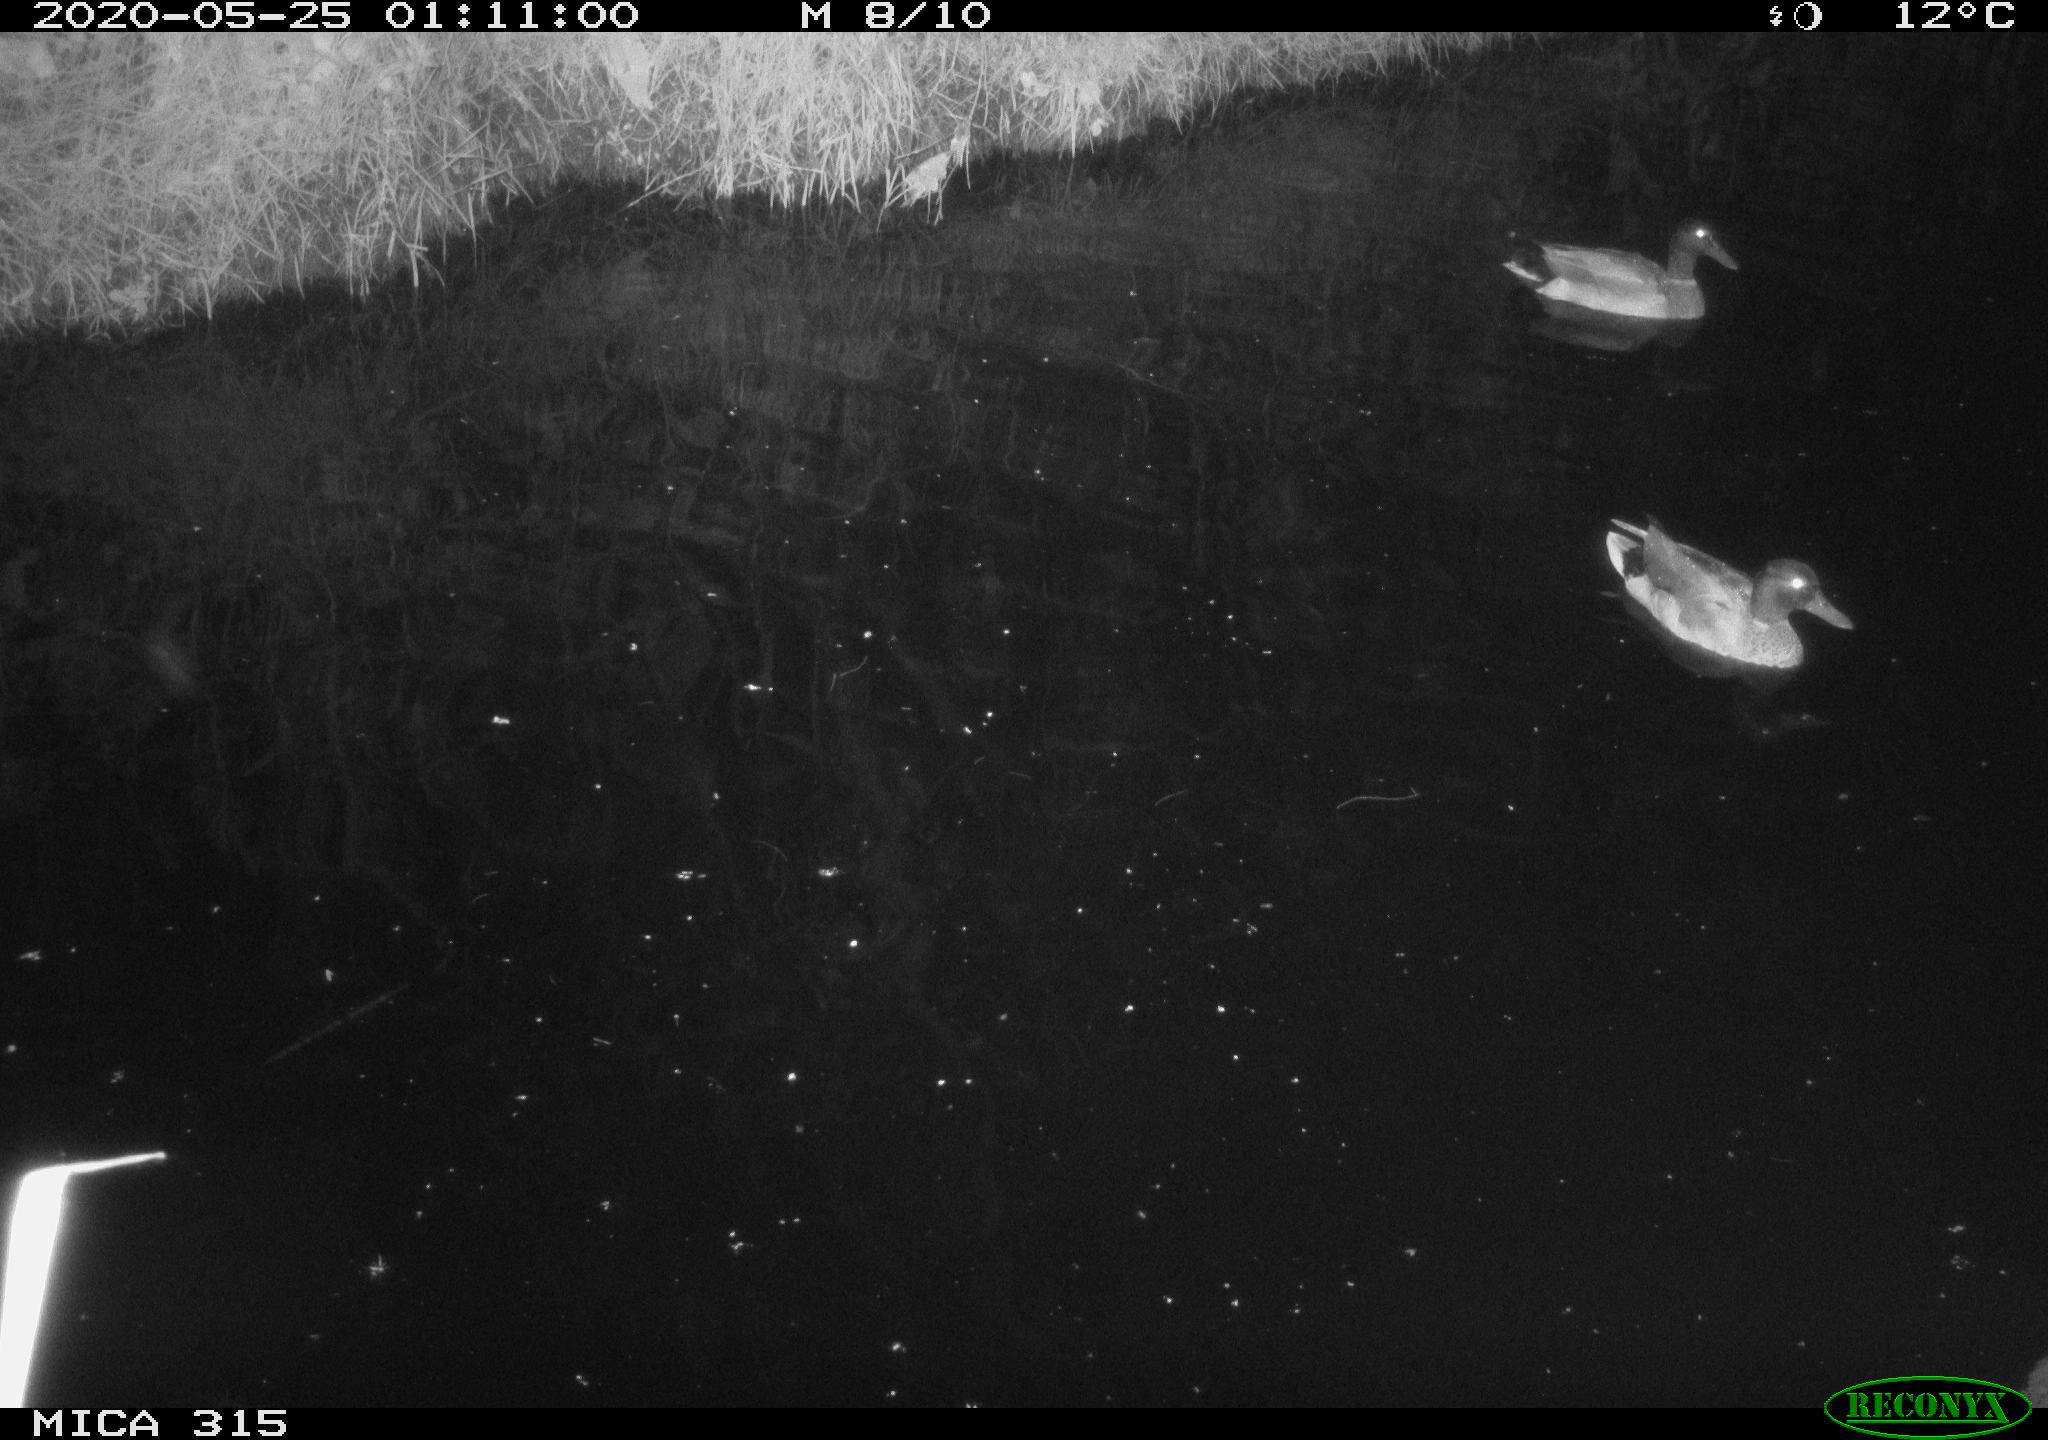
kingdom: Animalia
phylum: Chordata
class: Aves
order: Anseriformes
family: Anatidae
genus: Anas
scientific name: Anas platyrhynchos
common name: Mallard
